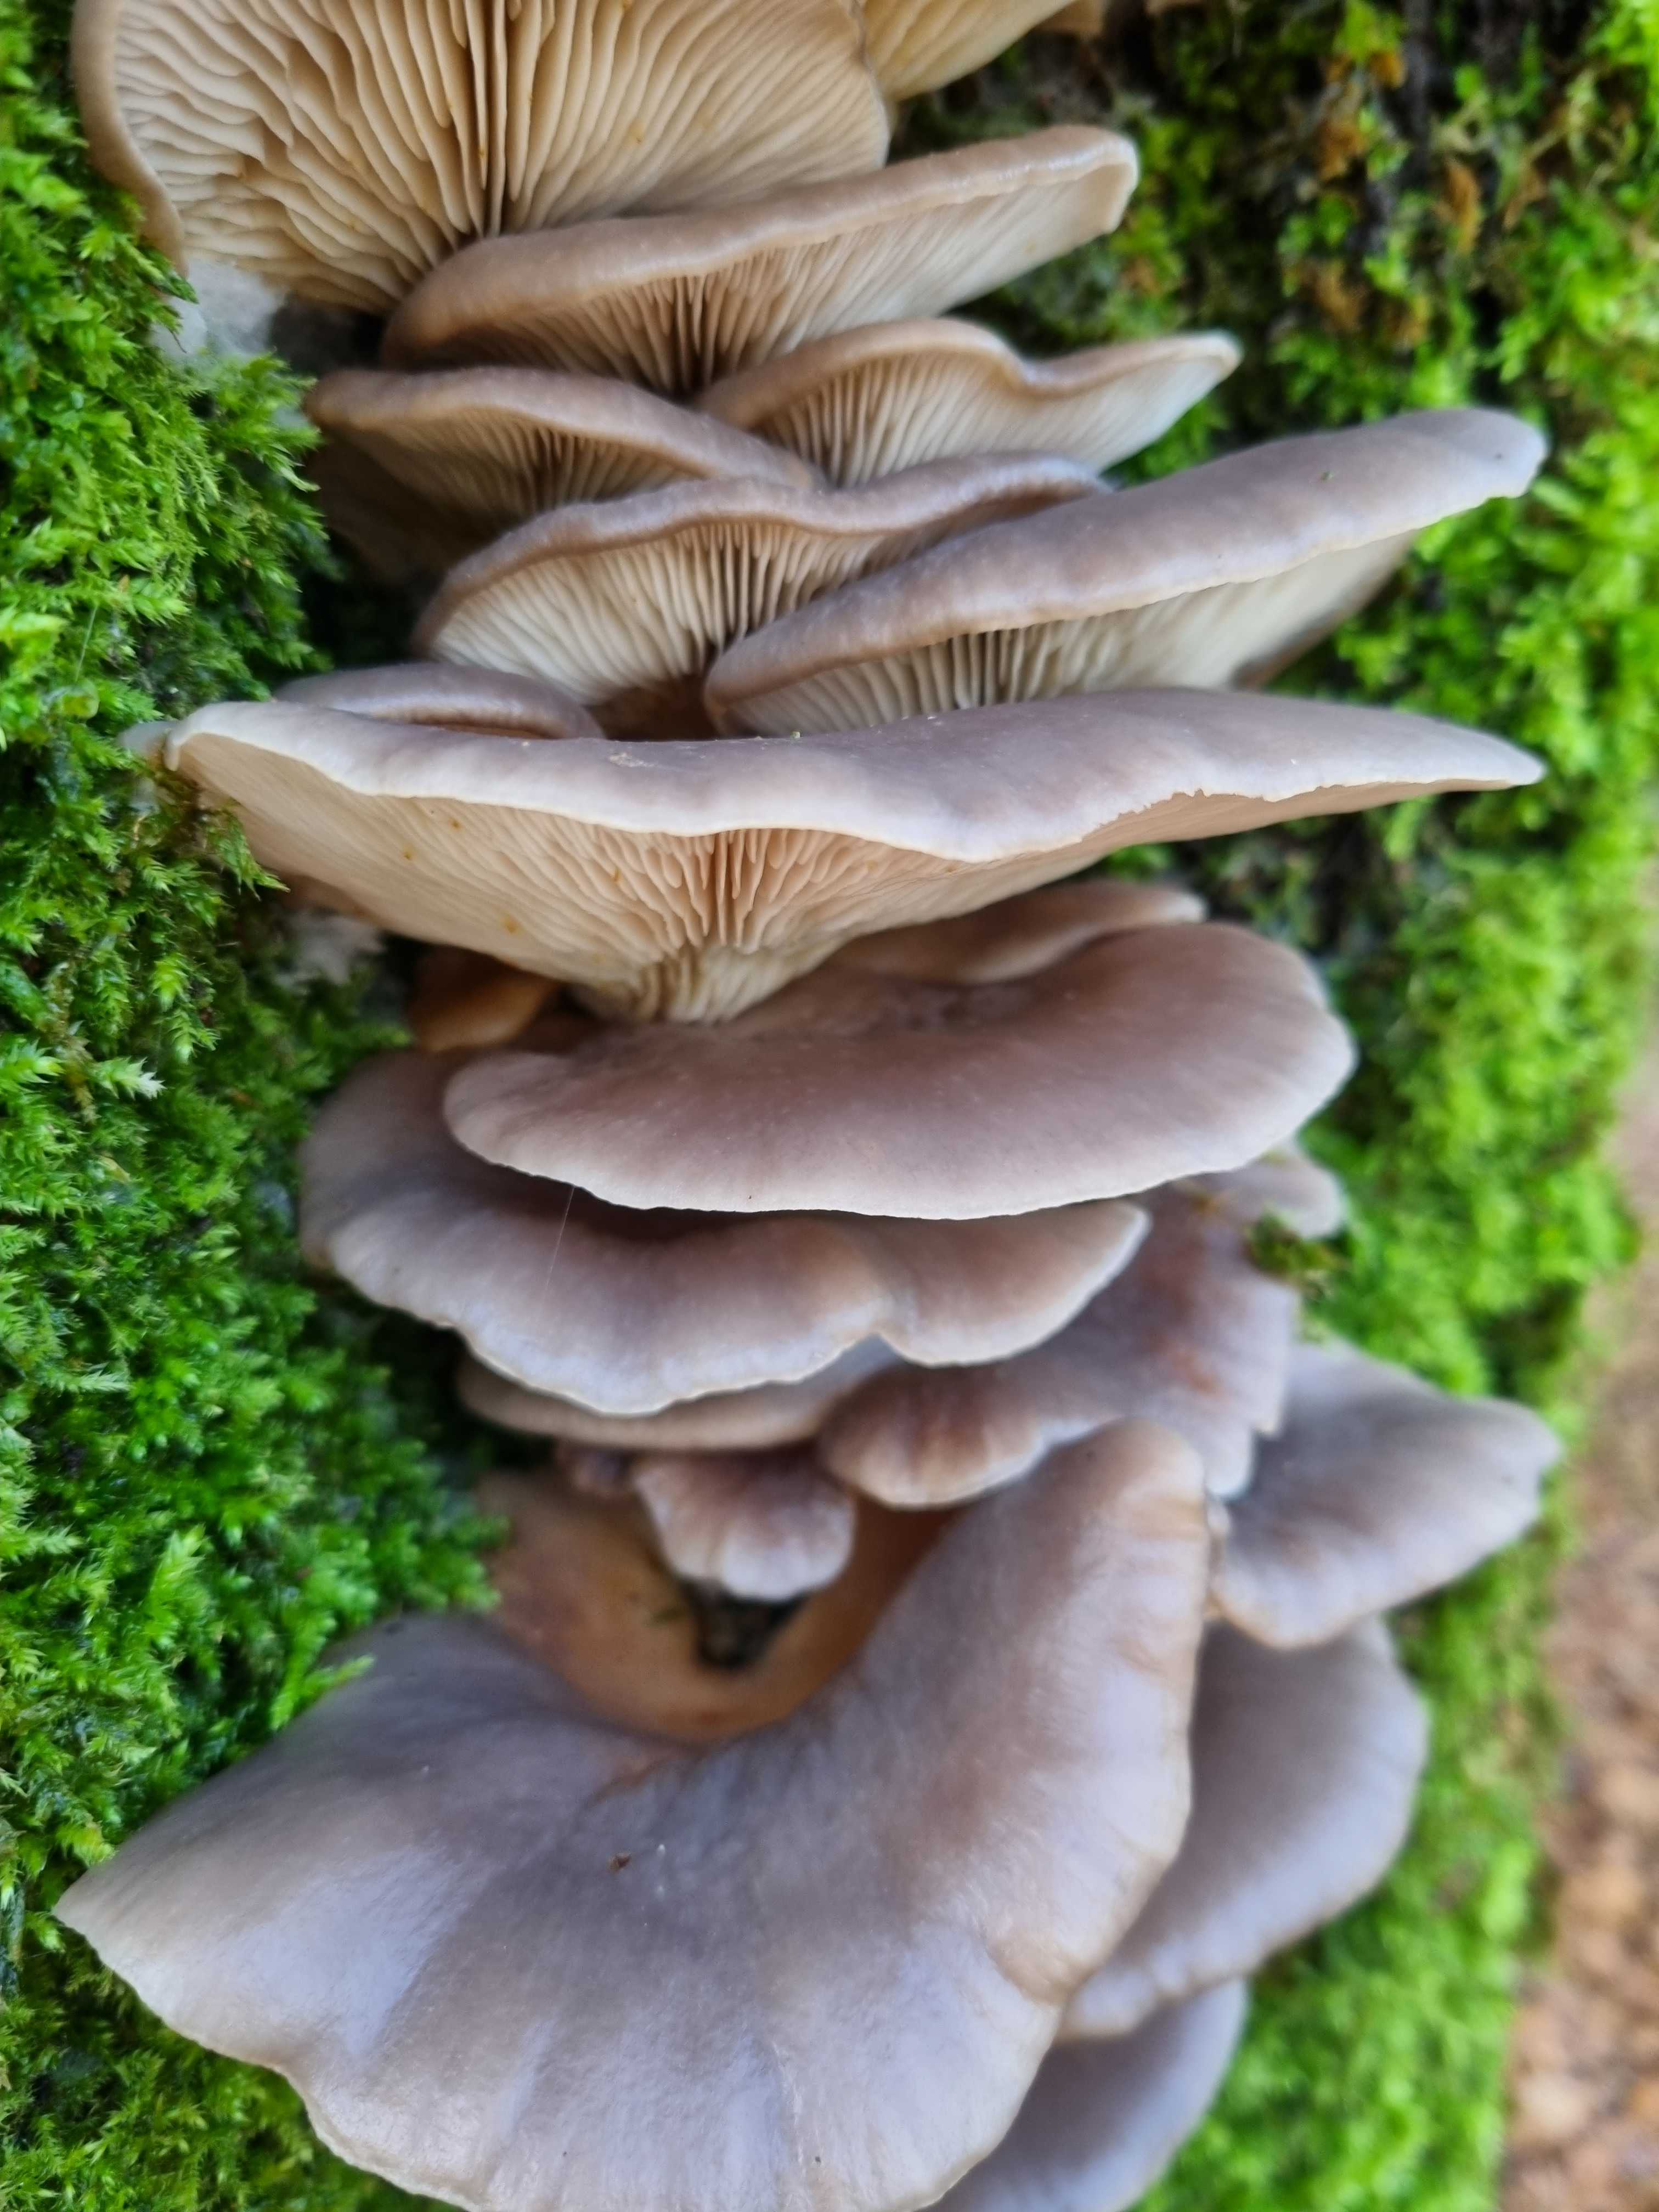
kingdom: Fungi
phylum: Basidiomycota
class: Agaricomycetes
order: Agaricales
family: Pleurotaceae
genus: Pleurotus
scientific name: Pleurotus ostreatus
